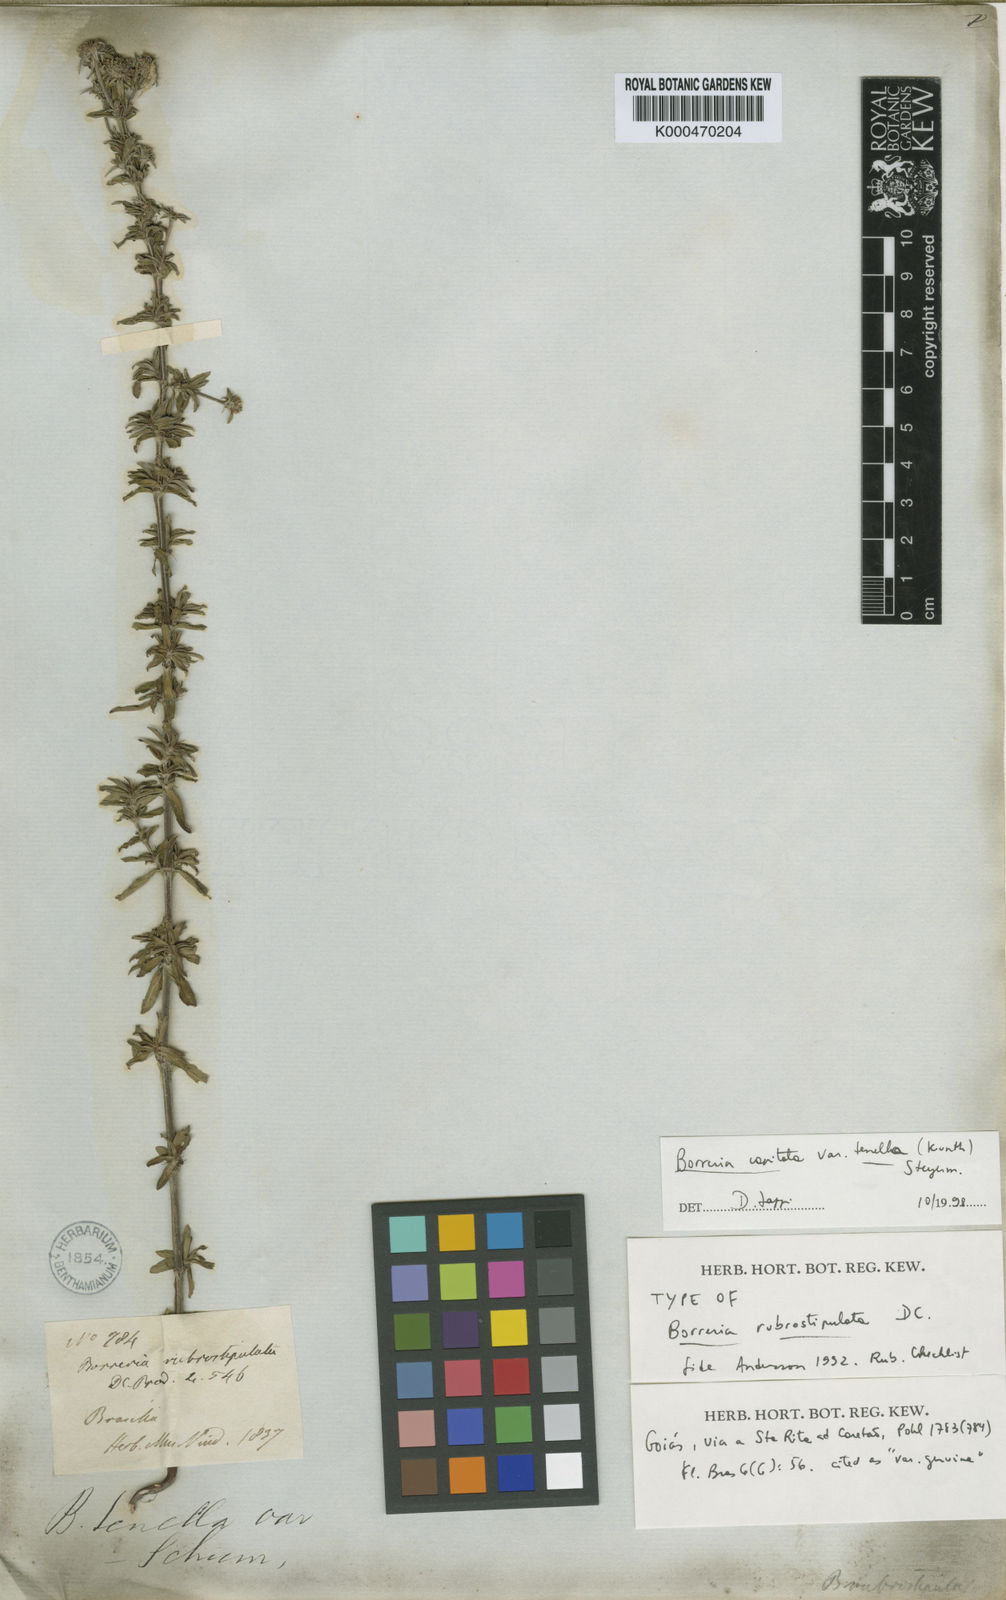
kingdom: Plantae
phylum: Tracheophyta
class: Magnoliopsida
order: Gentianales
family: Rubiaceae
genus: Spermacoce
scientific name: Spermacoce
